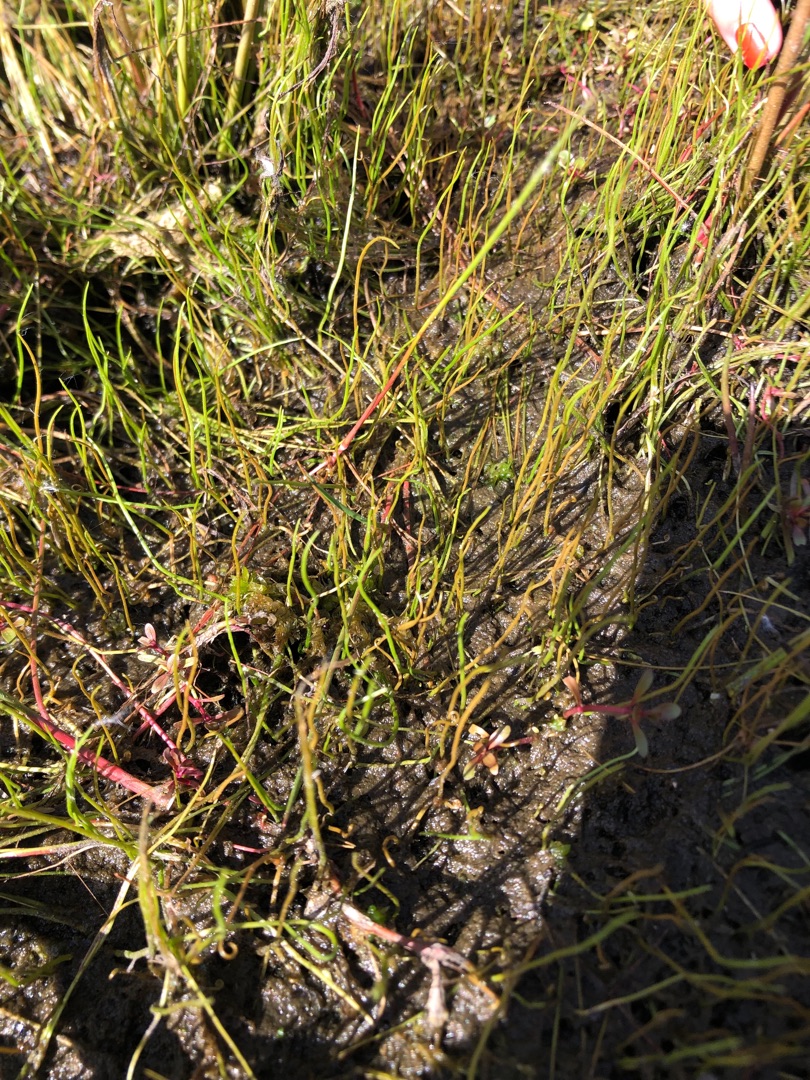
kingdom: Plantae
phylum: Tracheophyta
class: Polypodiopsida
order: Salviniales
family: Marsileaceae
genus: Pilularia
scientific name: Pilularia globulifera
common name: Pilledrager
